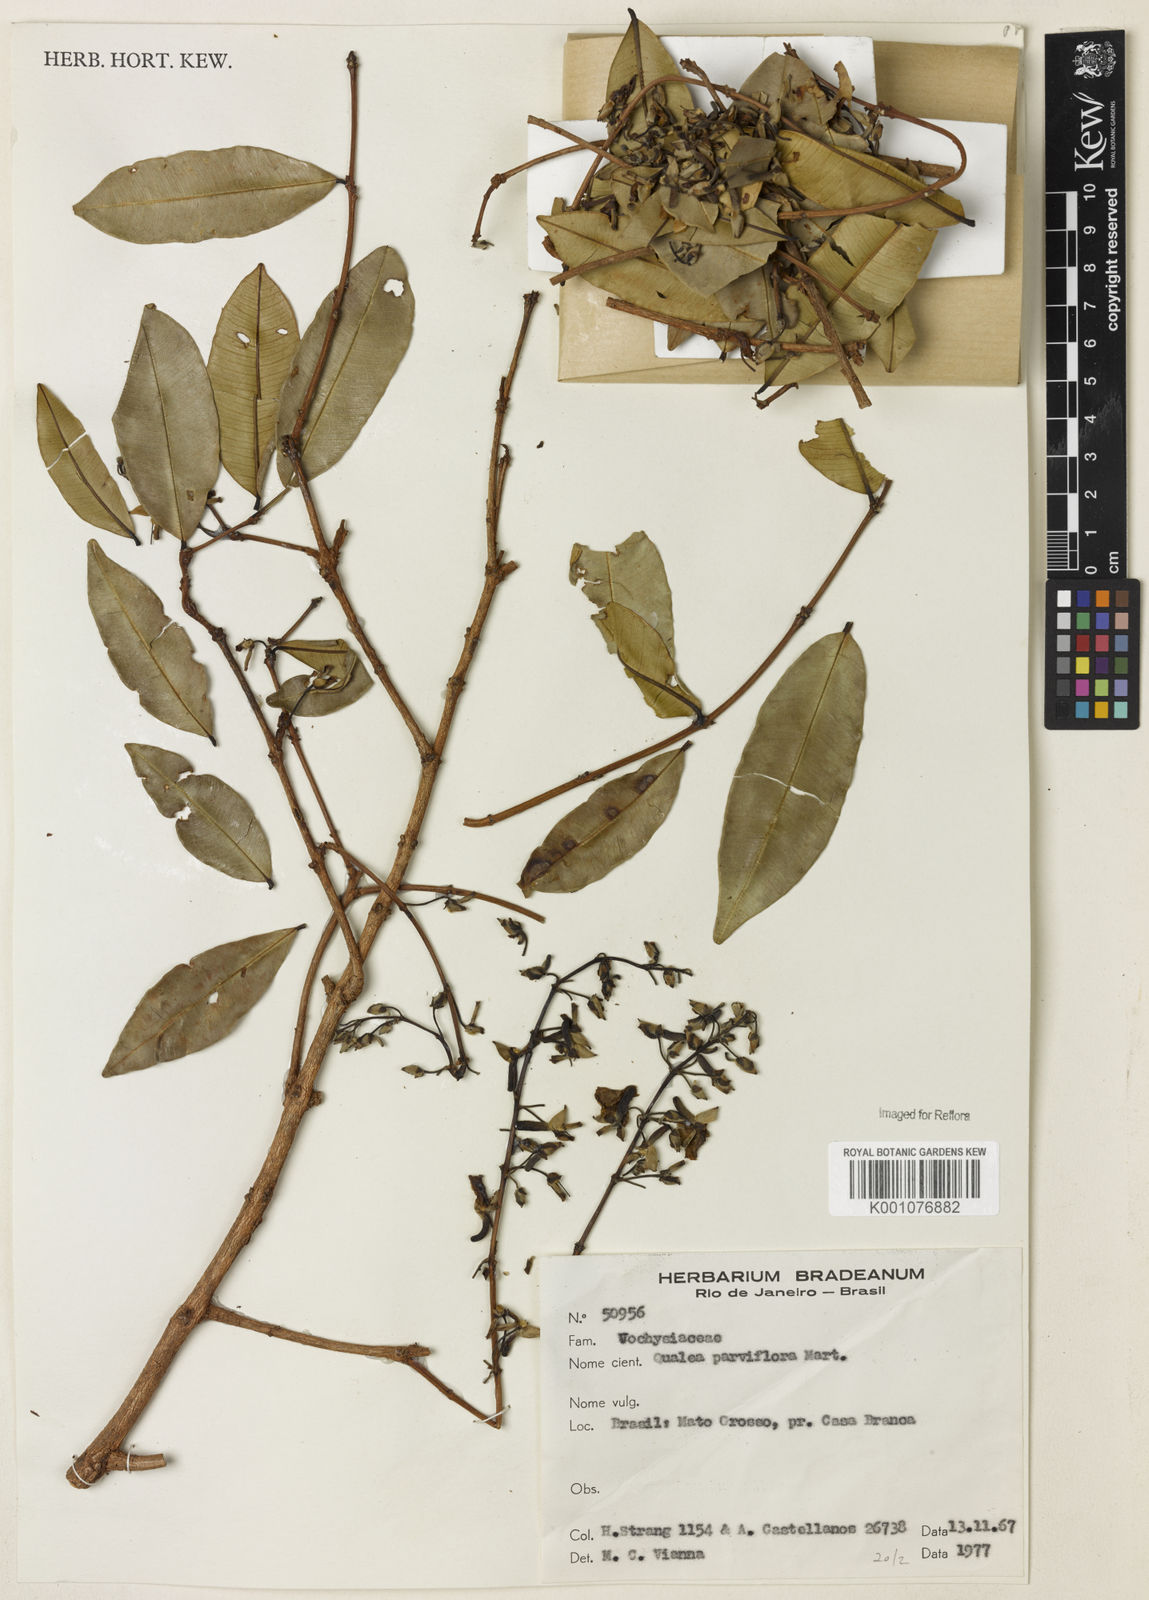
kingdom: Plantae
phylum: Tracheophyta
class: Magnoliopsida
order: Myrtales
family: Vochysiaceae
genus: Qualea
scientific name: Qualea parviflora
